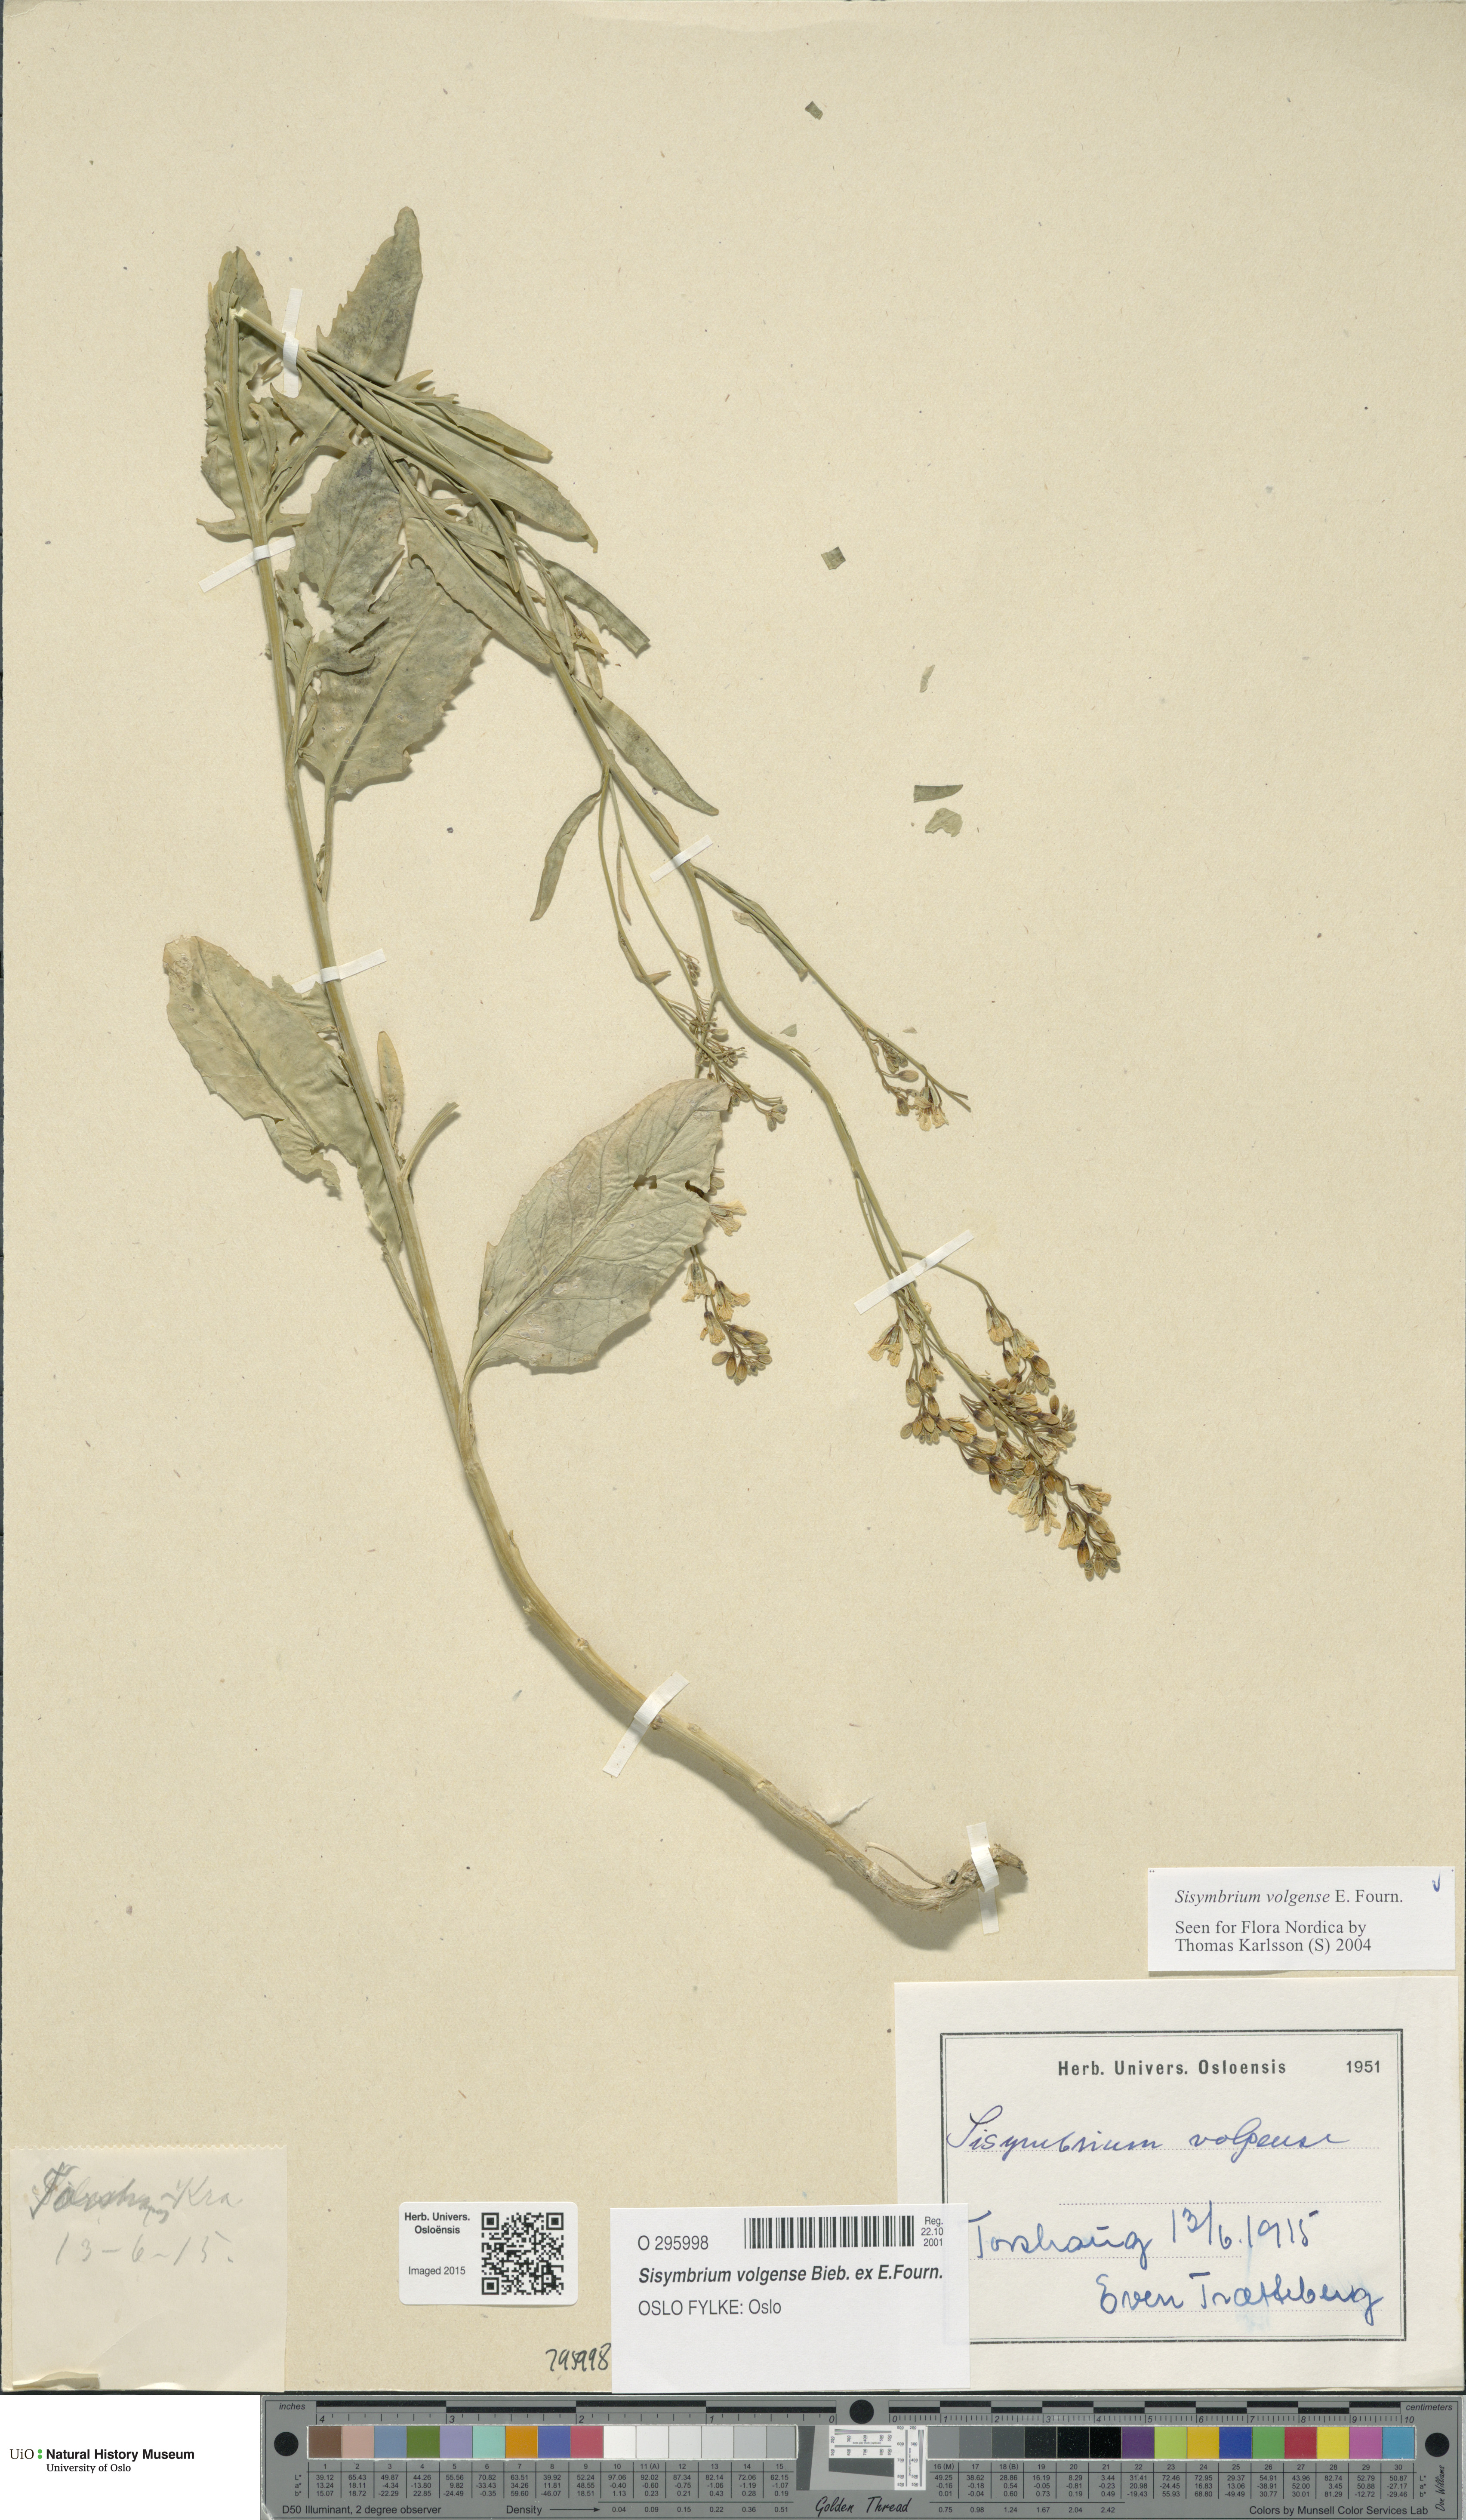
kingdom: Plantae
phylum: Tracheophyta
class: Magnoliopsida
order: Brassicales
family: Brassicaceae
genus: Sisymbrium
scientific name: Sisymbrium volgense
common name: Russian mustard
